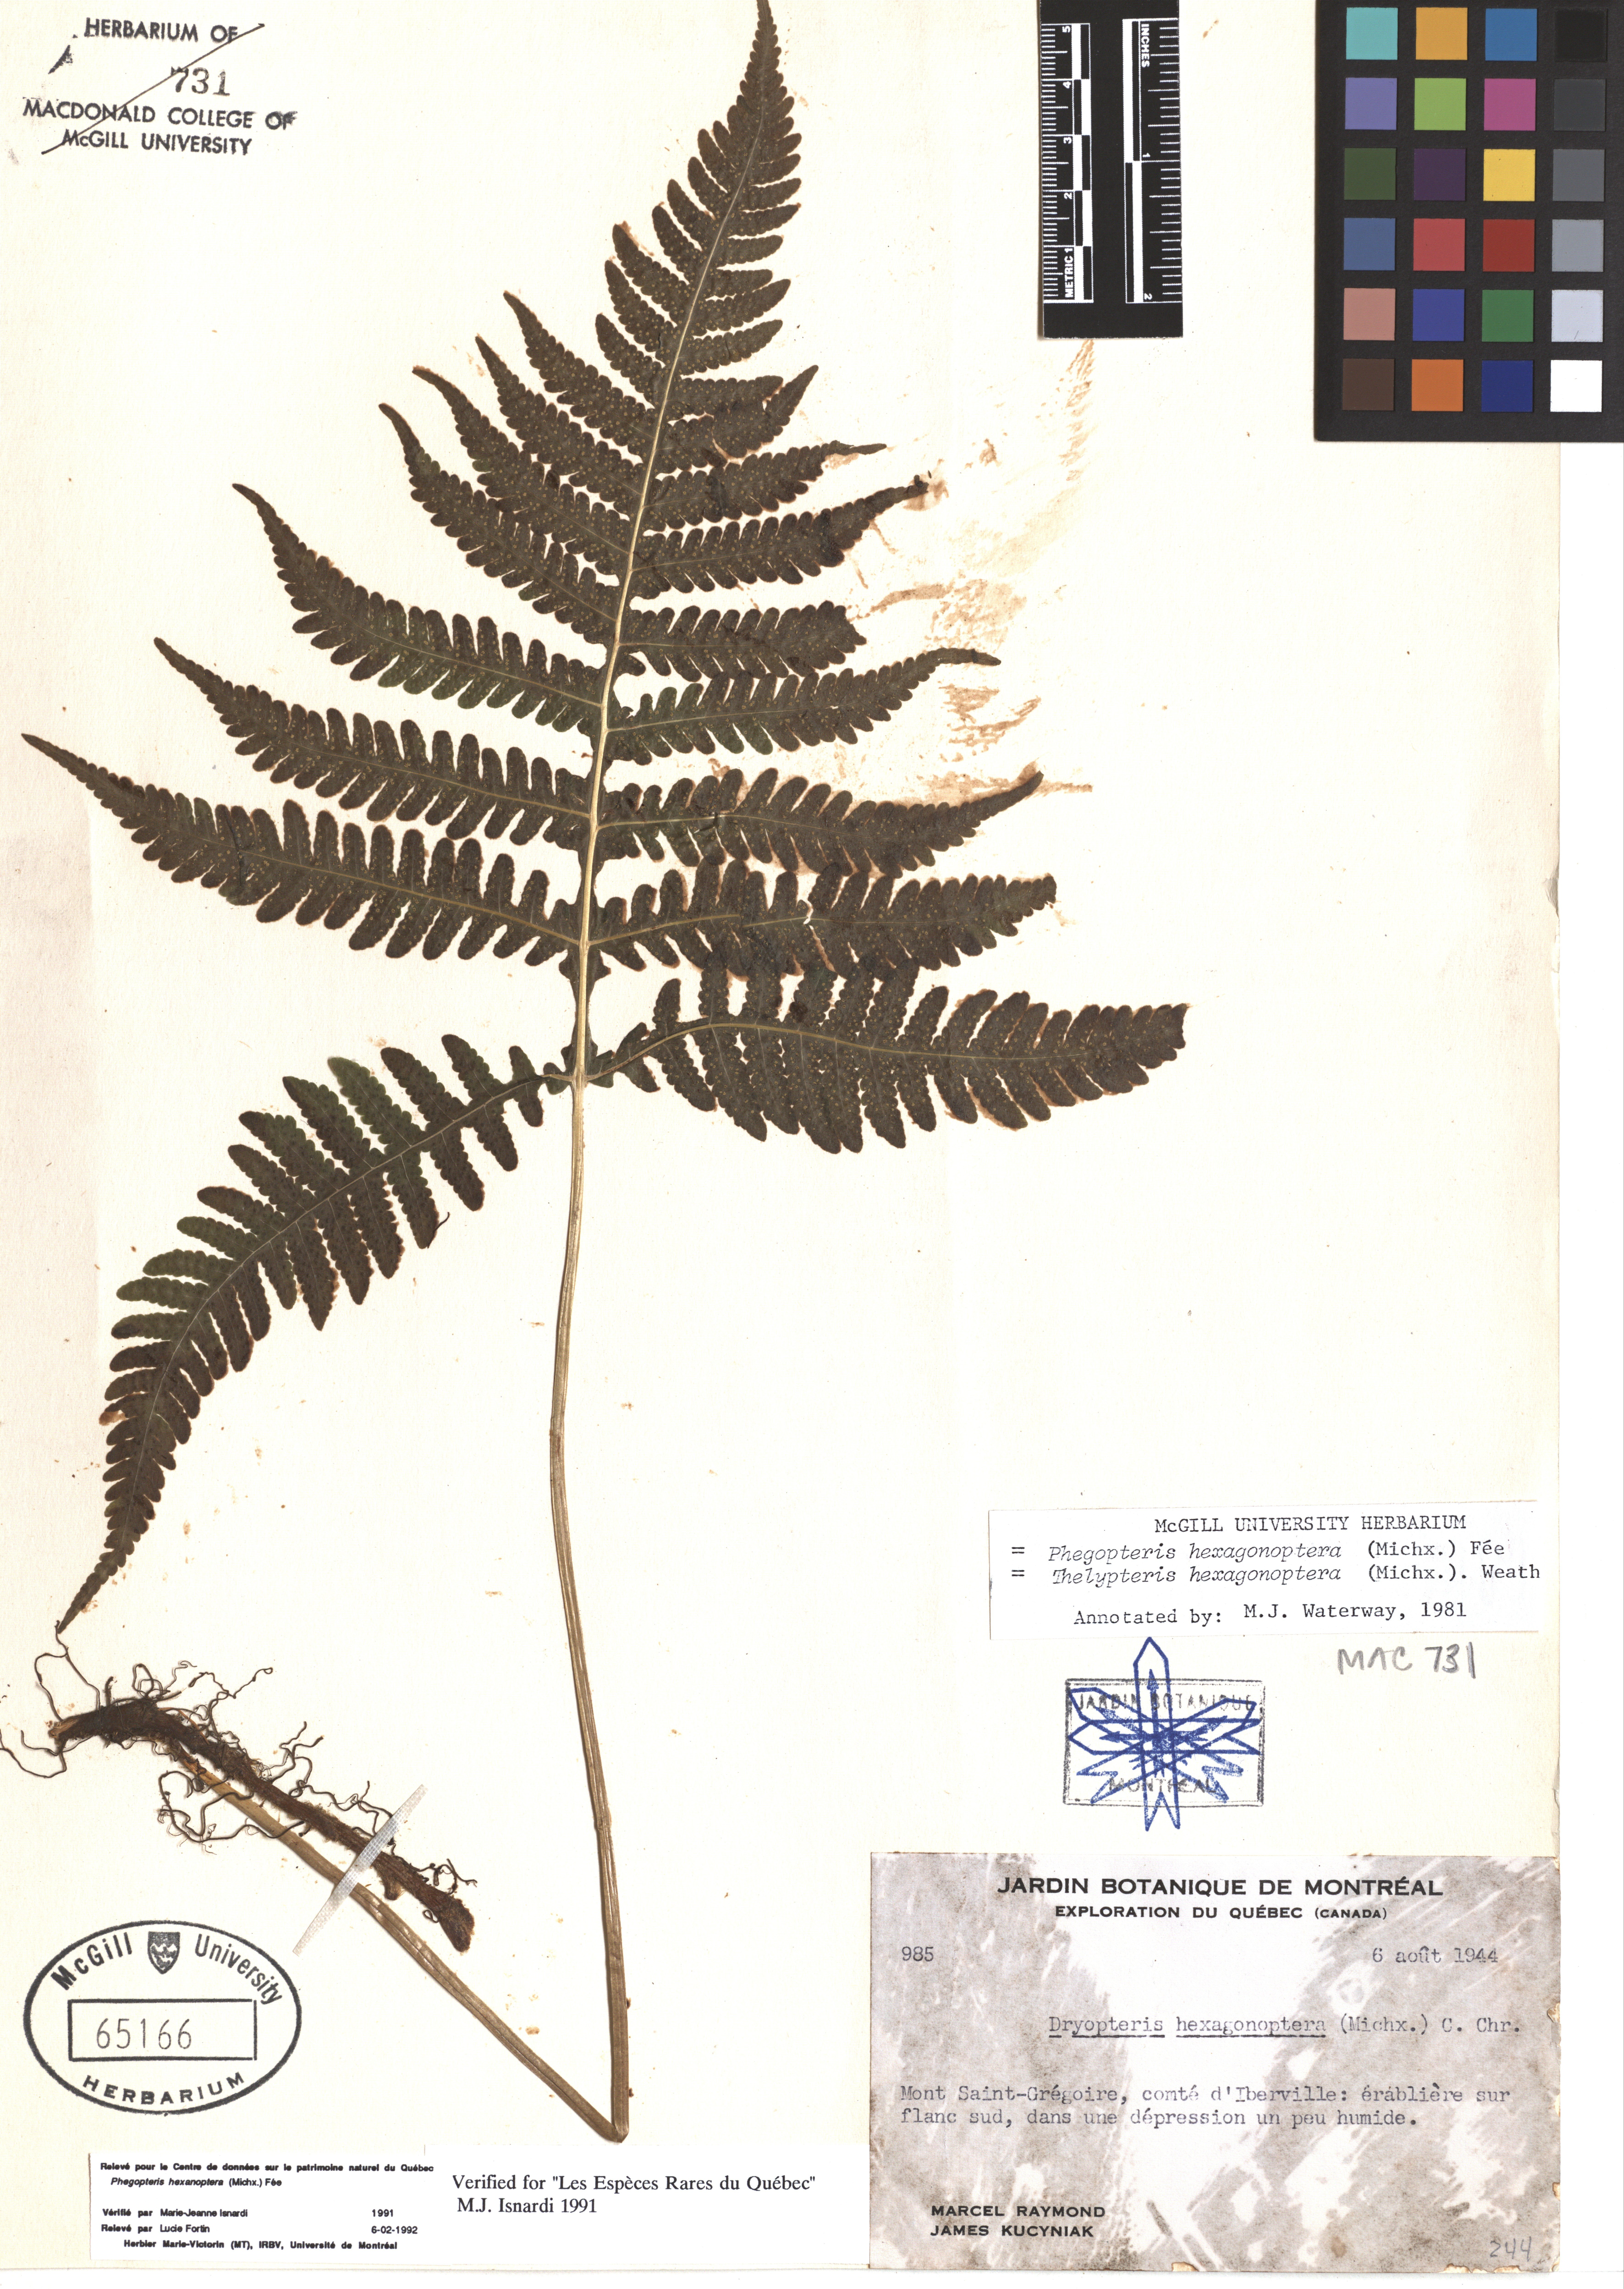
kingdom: Plantae
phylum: Tracheophyta
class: Polypodiopsida
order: Polypodiales
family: Thelypteridaceae
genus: Phegopteris
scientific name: Phegopteris hexagonoptera
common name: Broad beech fern
